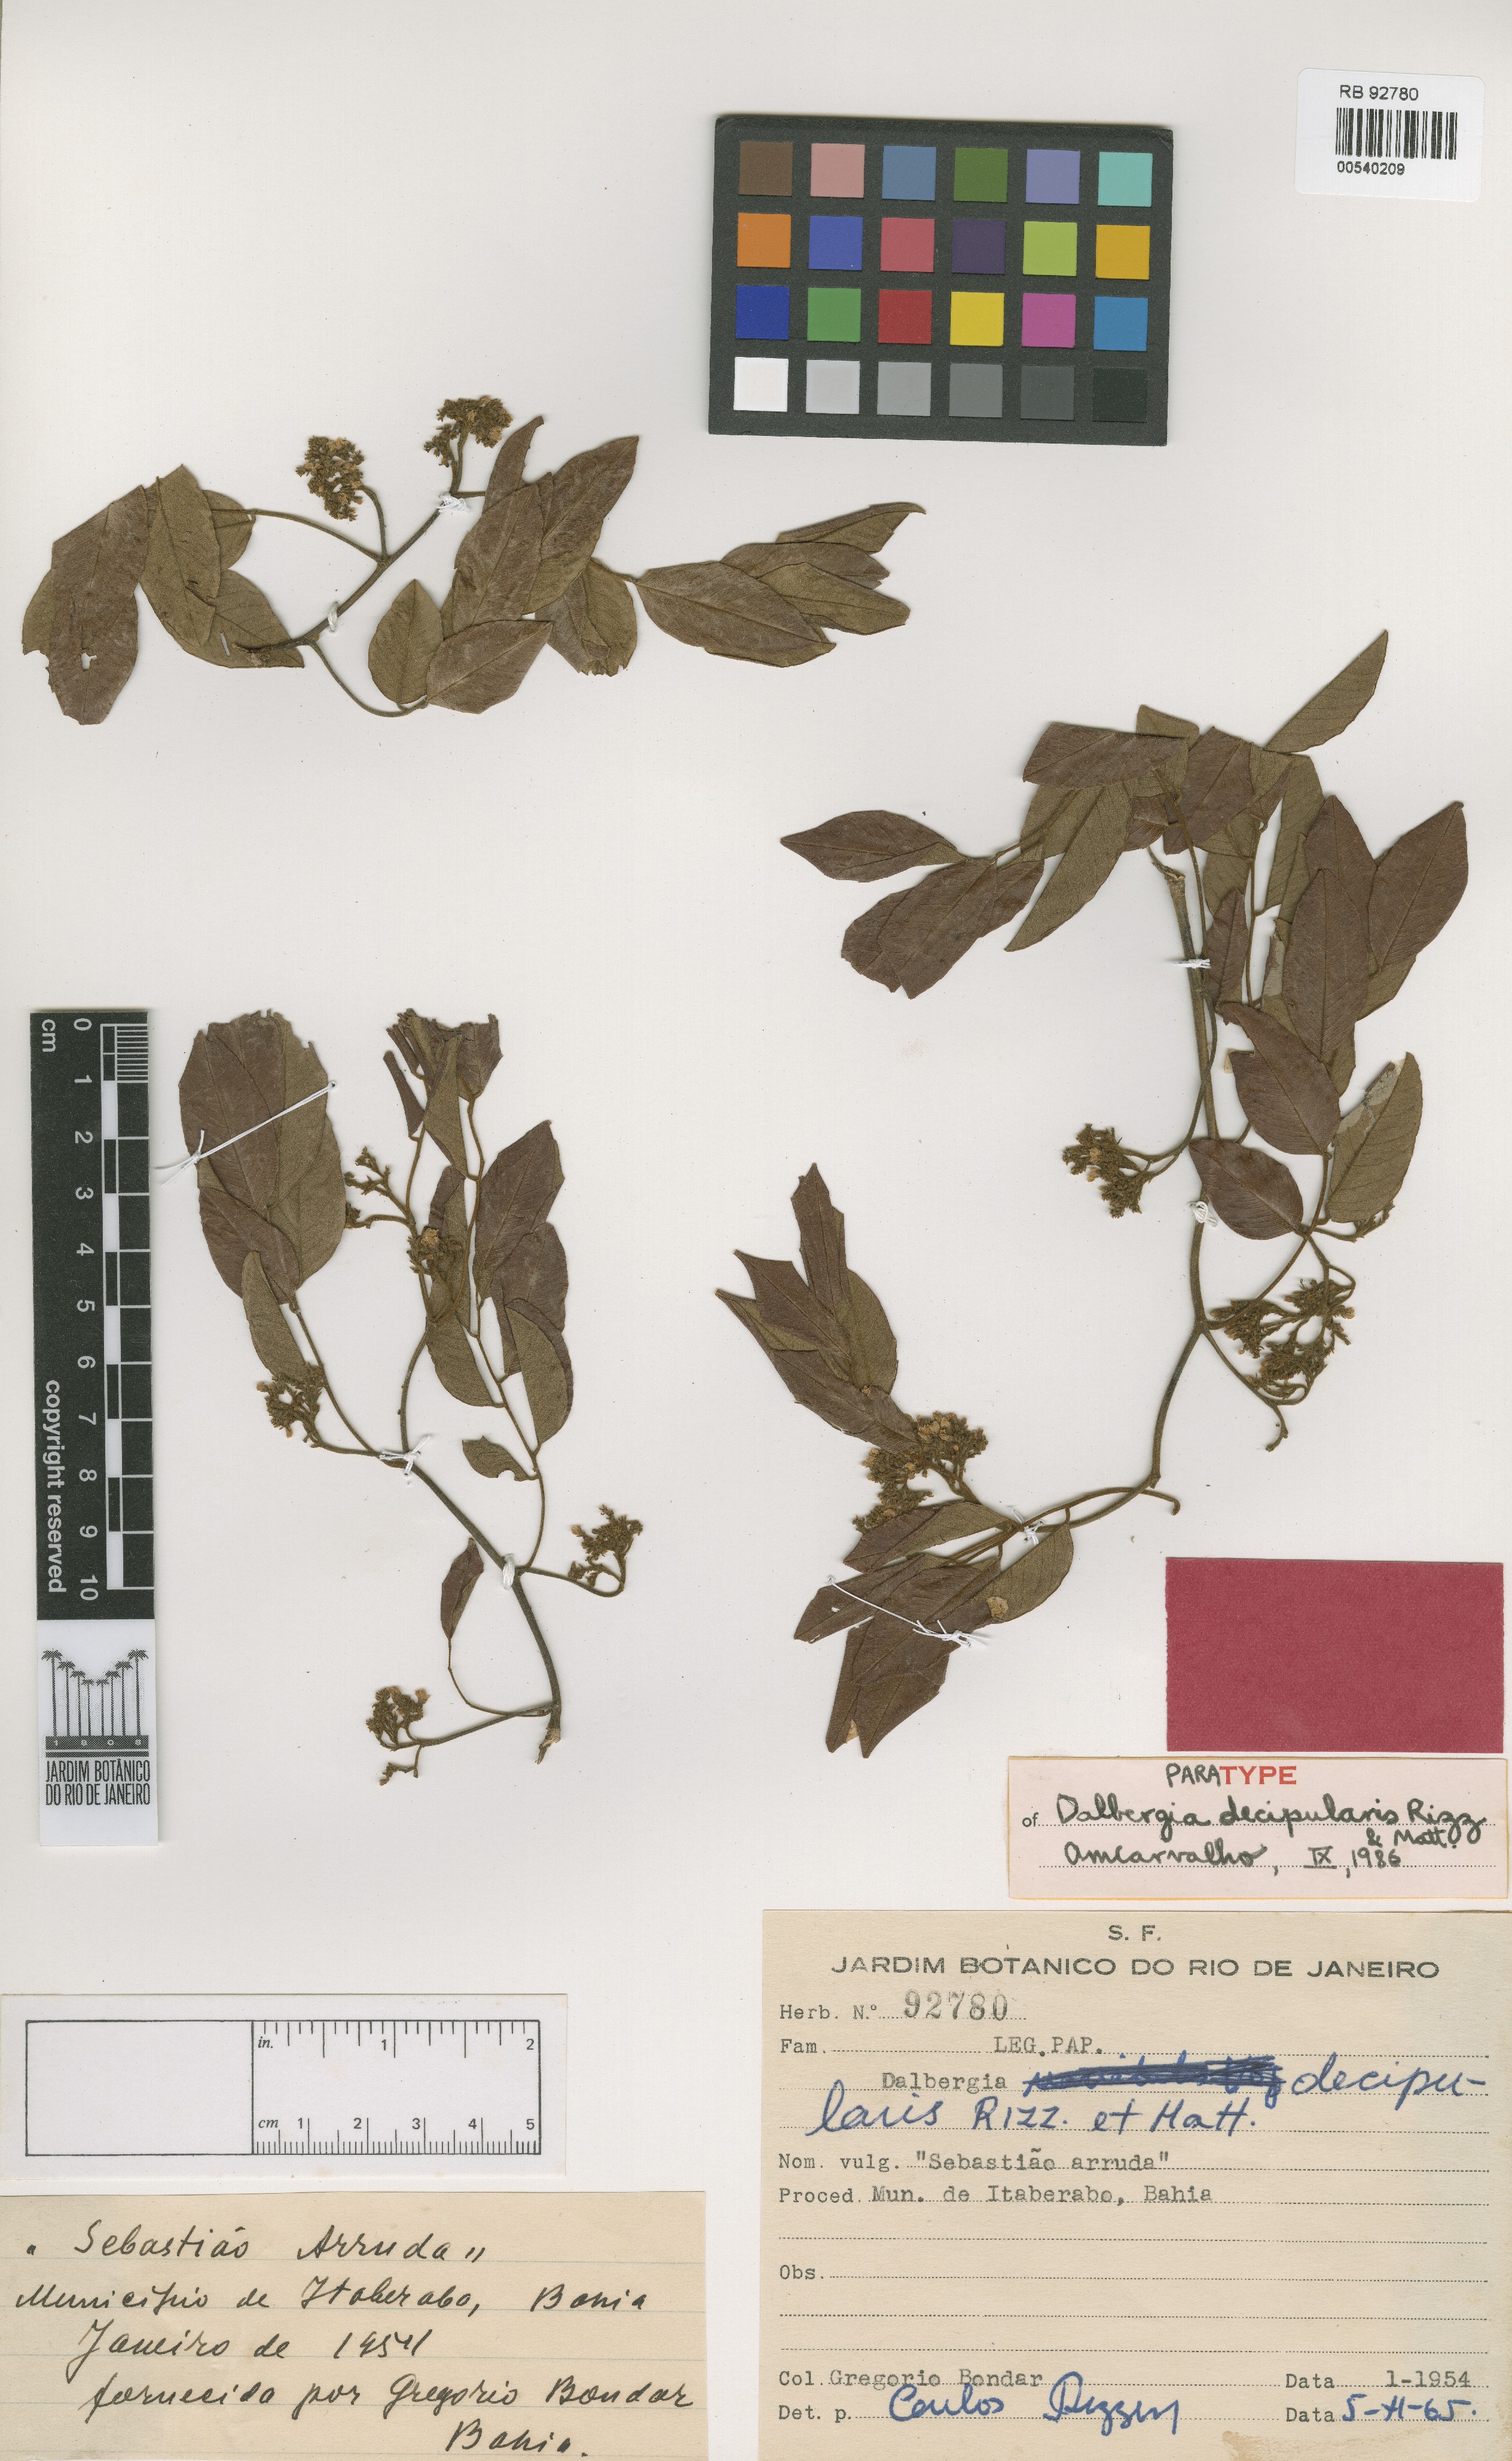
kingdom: Plantae
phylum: Tracheophyta
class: Magnoliopsida
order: Fabales
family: Fabaceae
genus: Dalbergia
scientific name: Dalbergia decipularis
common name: Brazilian tulipwood
